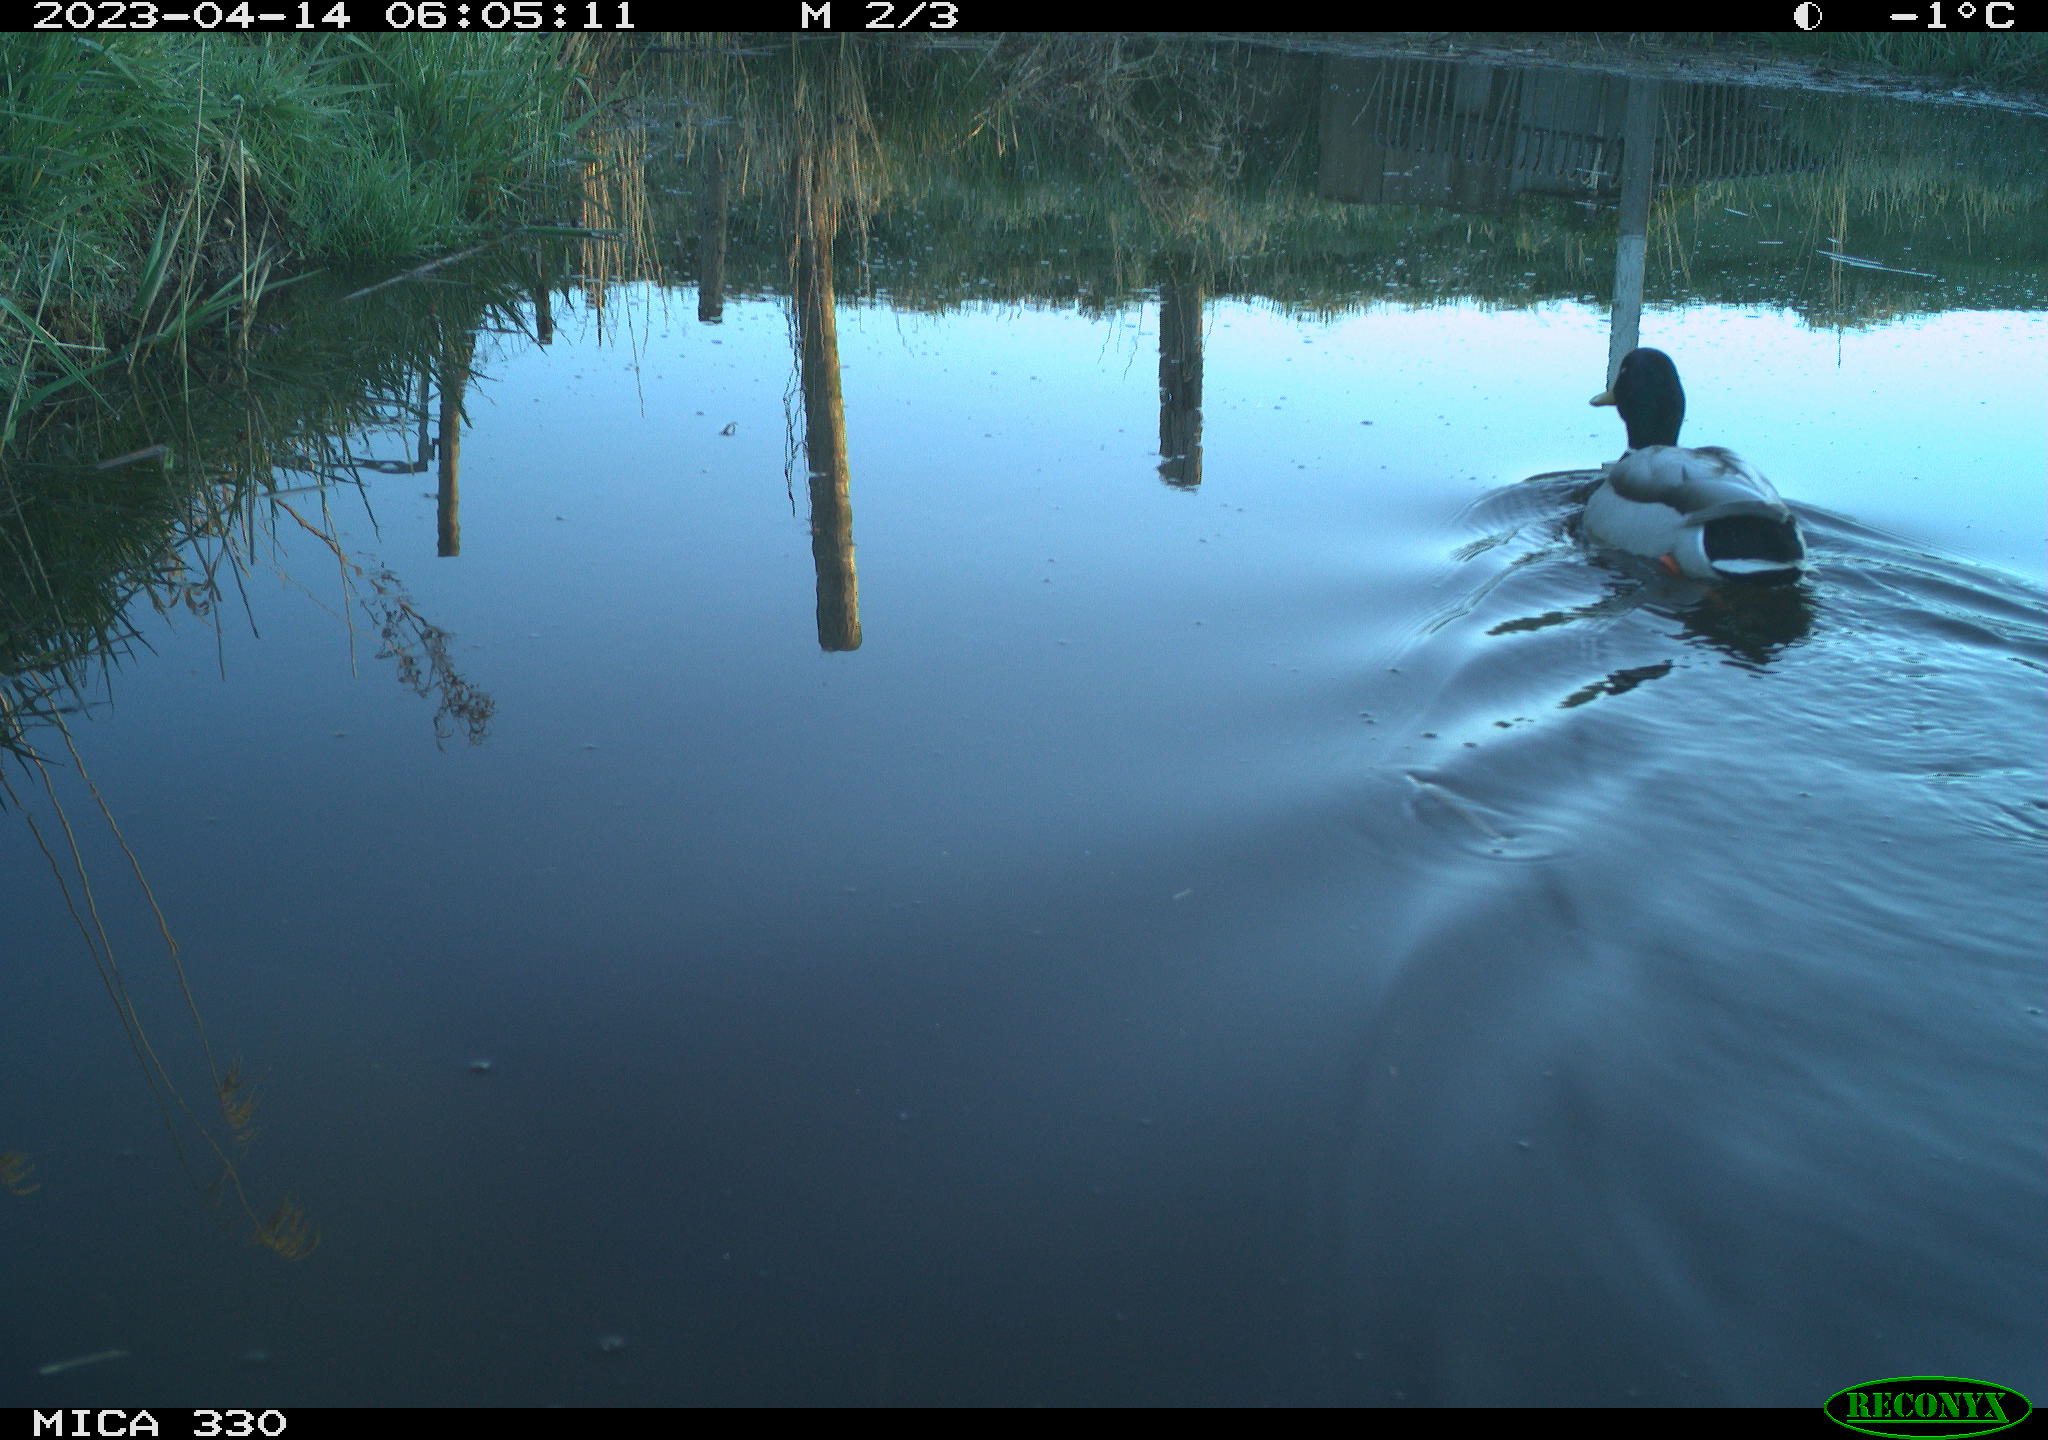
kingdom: Animalia
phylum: Chordata
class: Aves
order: Anseriformes
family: Anatidae
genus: Anas
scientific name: Anas
